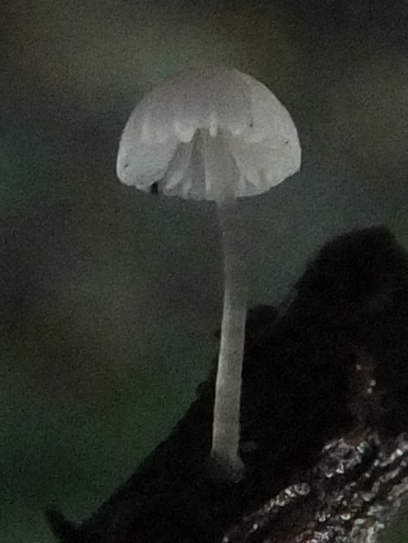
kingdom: Fungi
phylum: Basidiomycota
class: Agaricomycetes
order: Agaricales
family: Mycenaceae
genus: Mycena
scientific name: Mycena tenerrima
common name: pudret huesvamp
